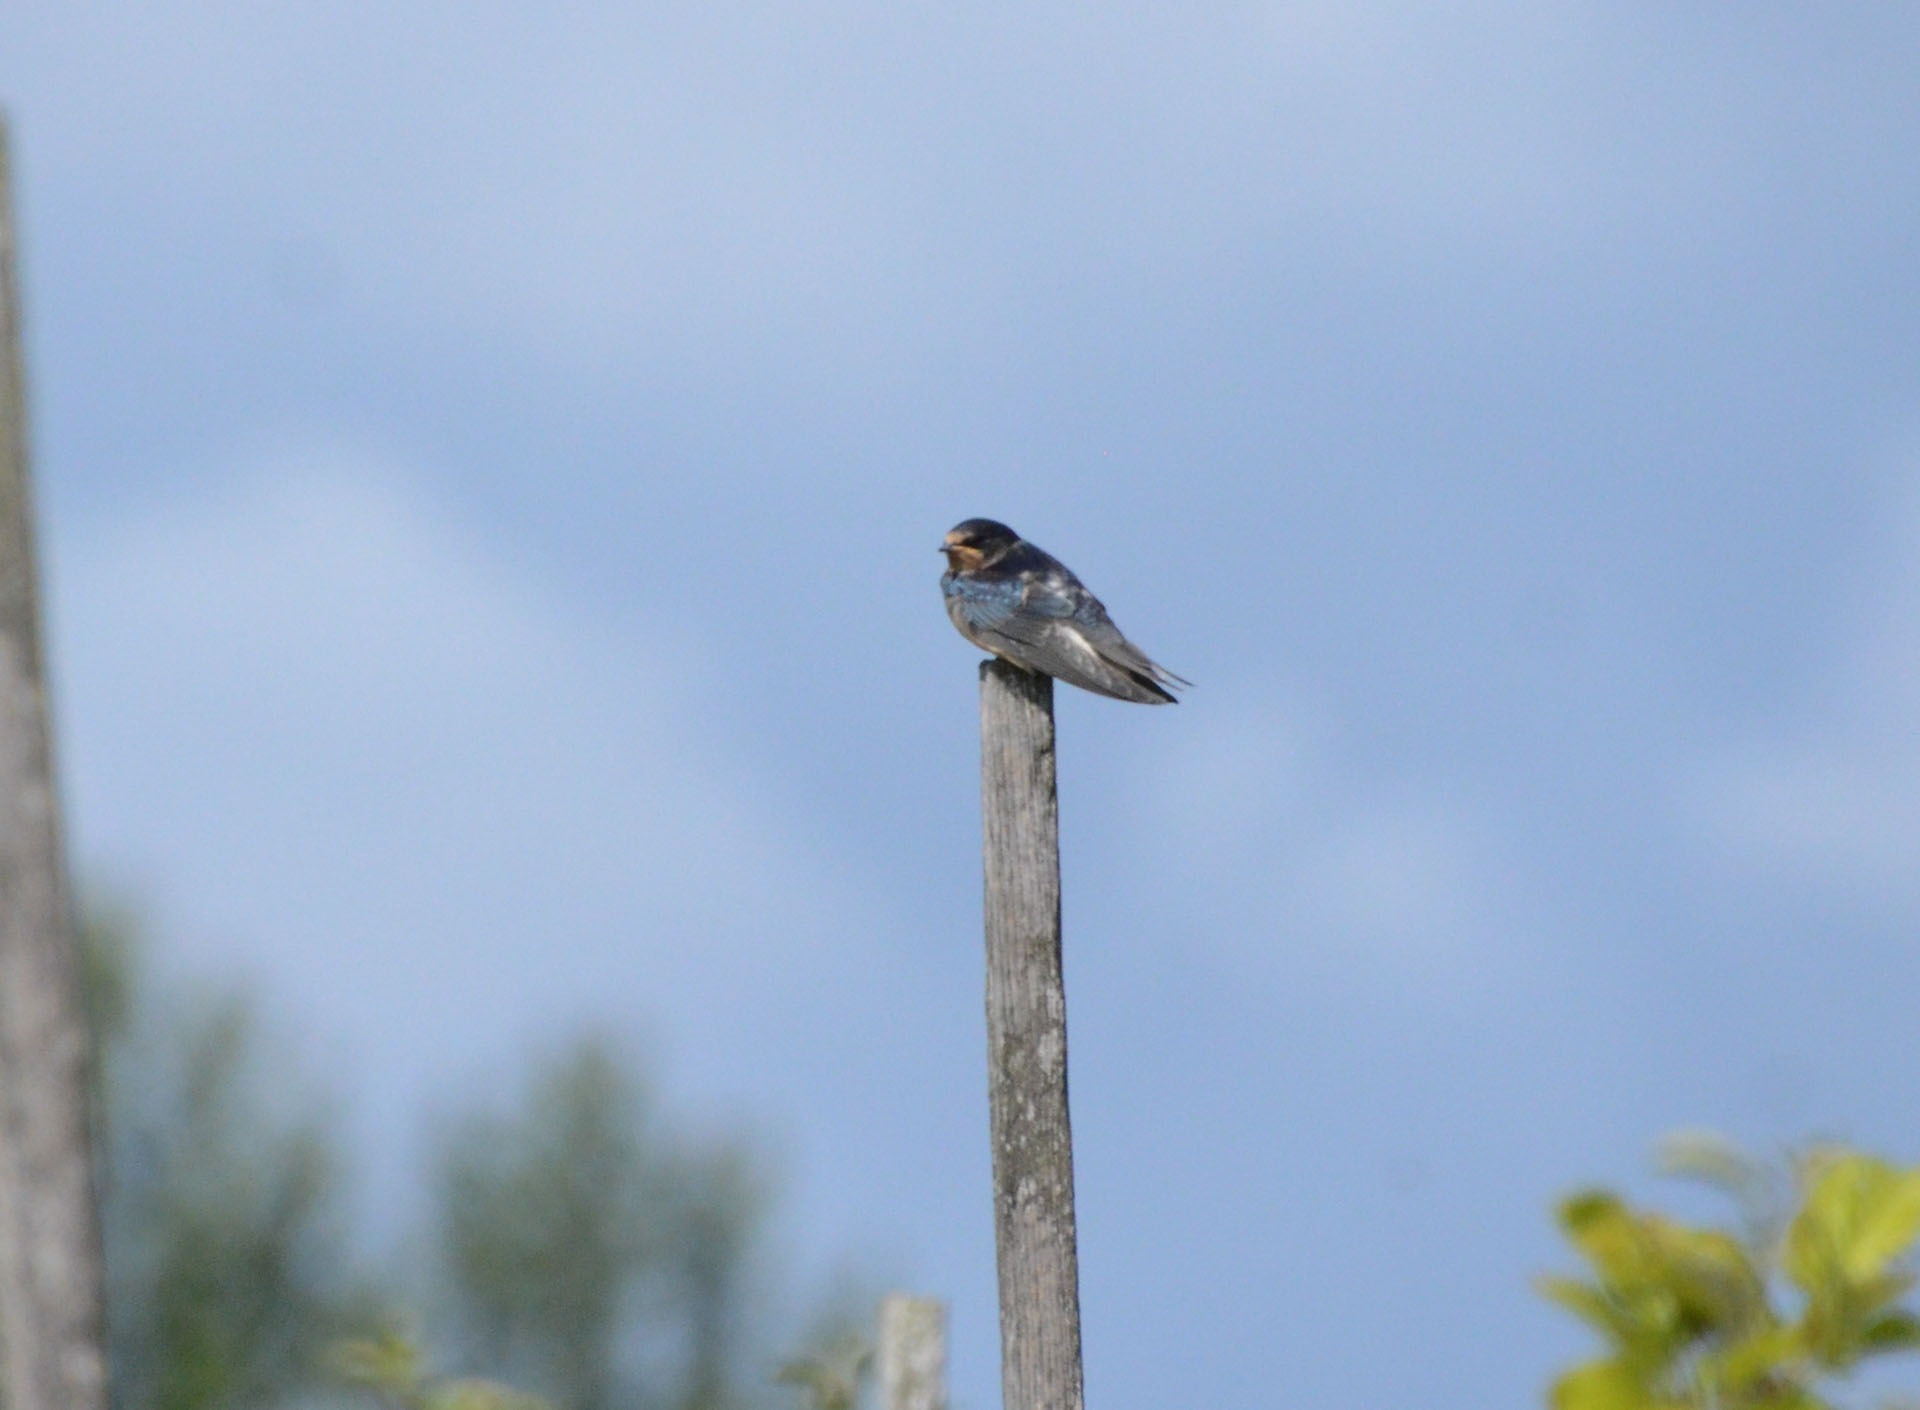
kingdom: Animalia
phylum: Chordata
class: Aves
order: Passeriformes
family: Hirundinidae
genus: Hirundo
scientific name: Hirundo rustica
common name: Landsvale
